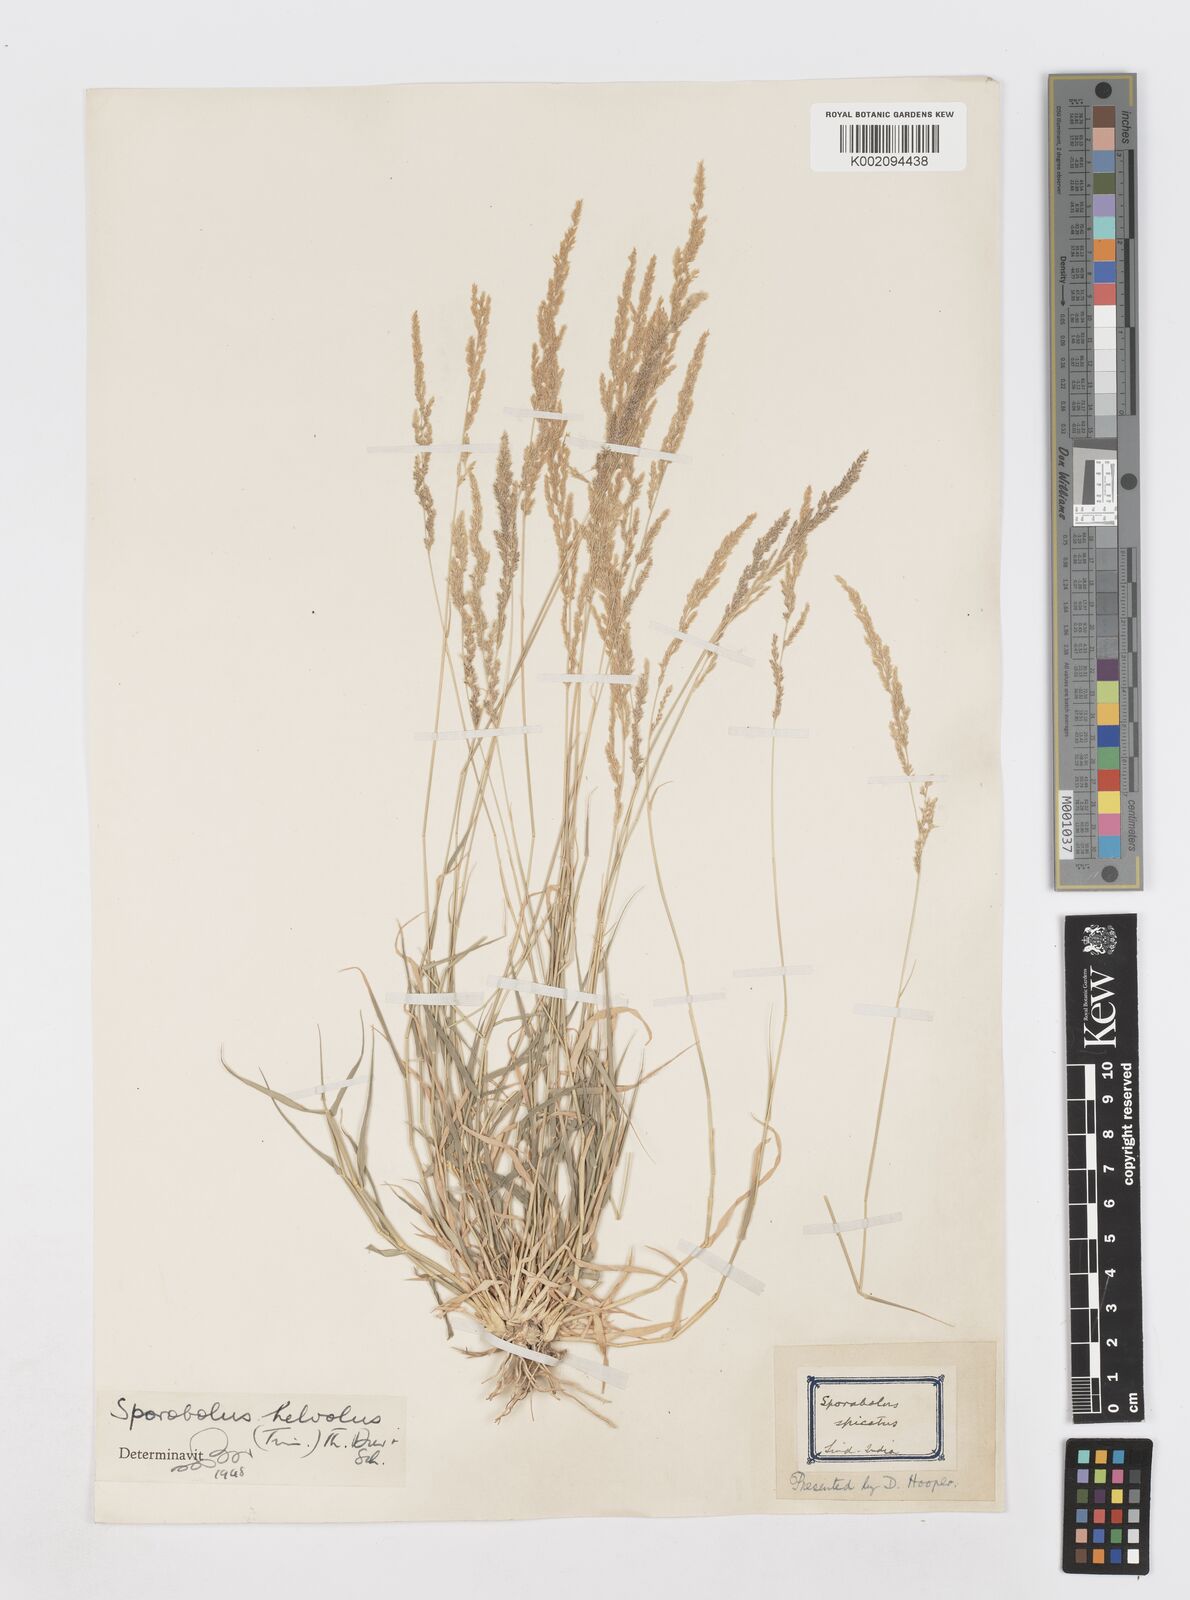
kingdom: Plantae
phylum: Tracheophyta
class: Liliopsida
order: Poales
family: Poaceae
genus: Sporobolus
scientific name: Sporobolus helvolus
